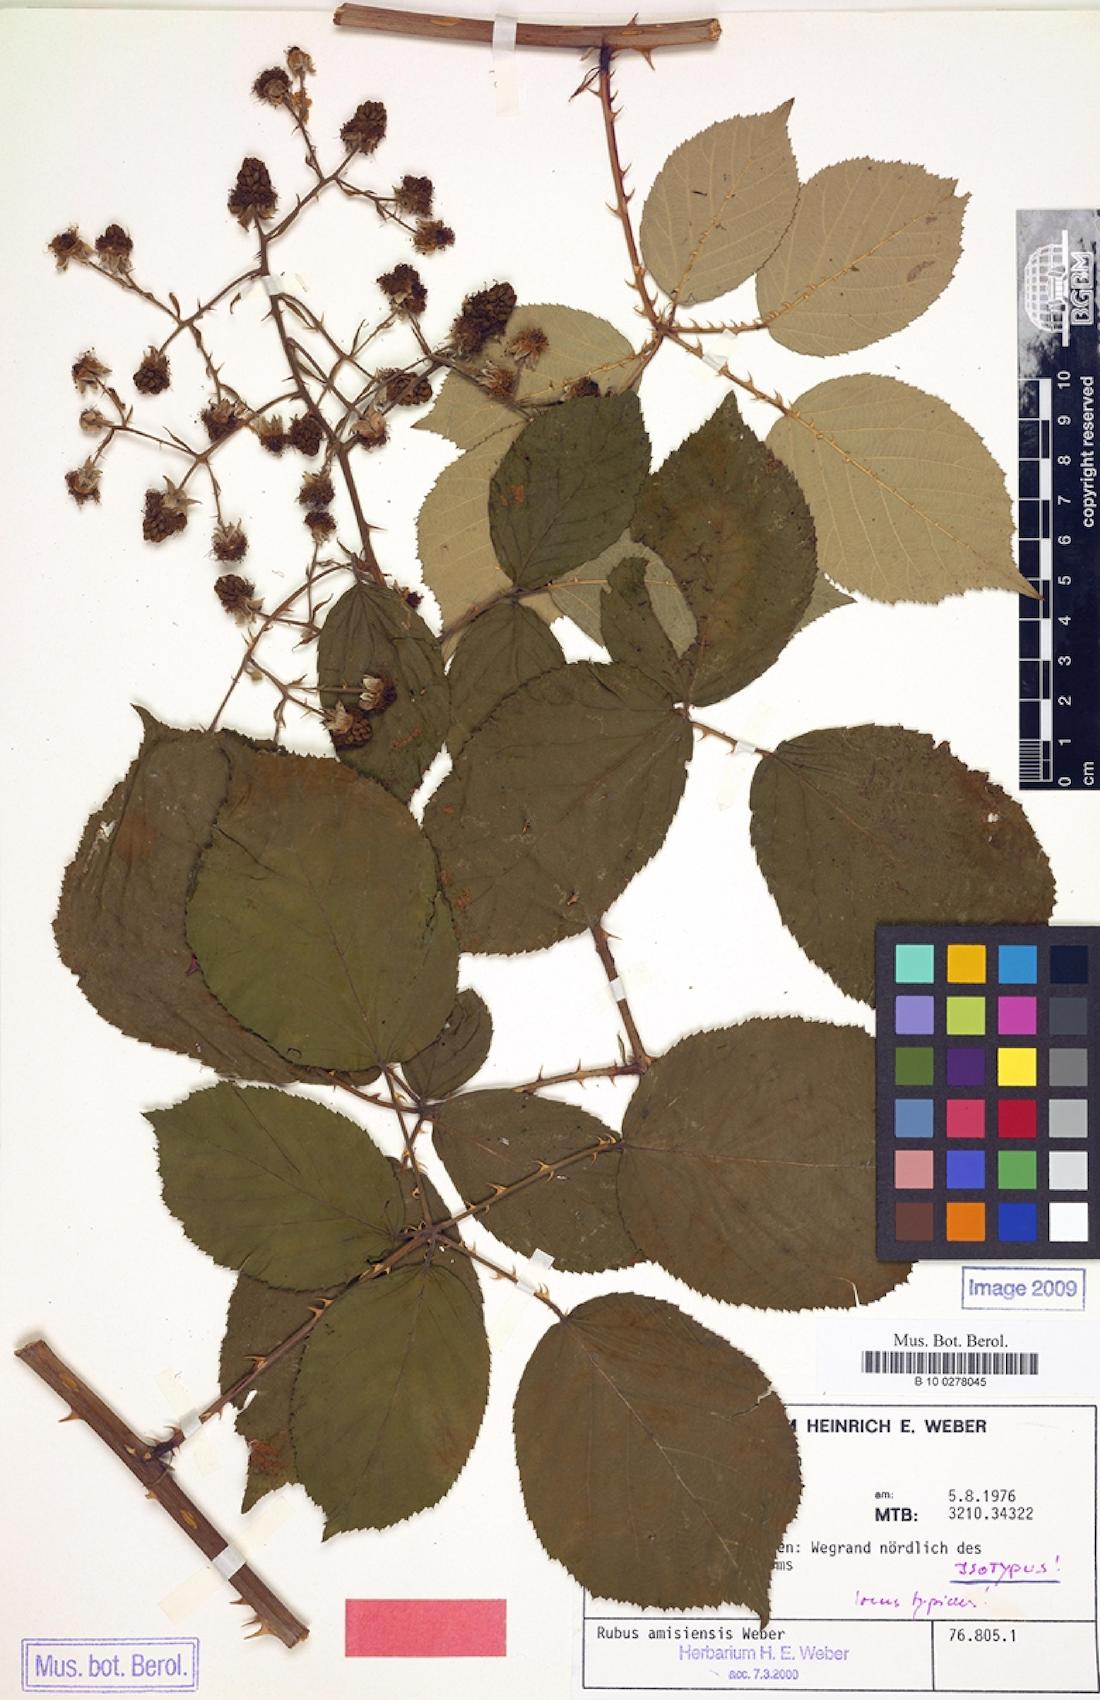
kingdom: Plantae
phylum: Tracheophyta
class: Magnoliopsida
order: Rosales
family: Rosaceae
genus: Rubus
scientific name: Rubus amisiensis
